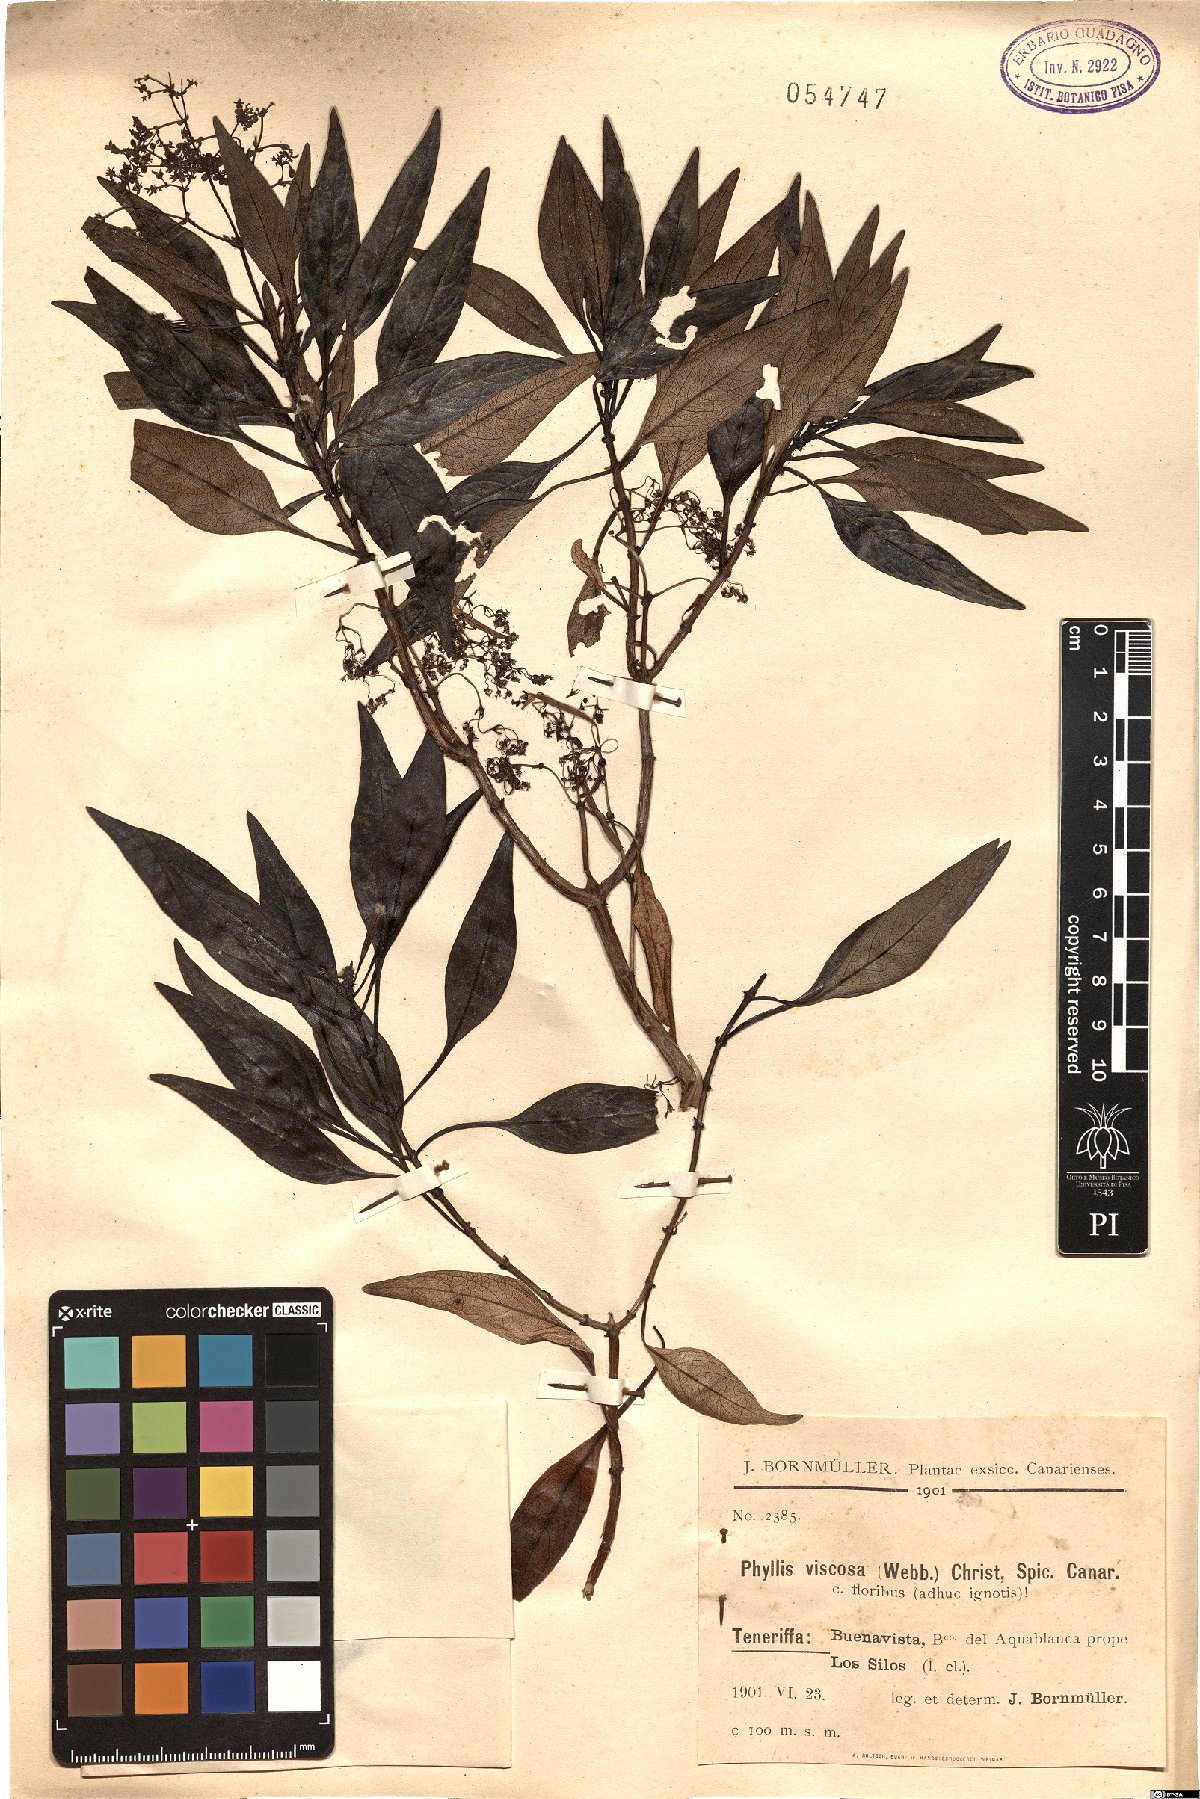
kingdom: Plantae
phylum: Tracheophyta
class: Magnoliopsida
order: Gentianales
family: Rubiaceae
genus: Phyllis
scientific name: Phyllis viscosa
